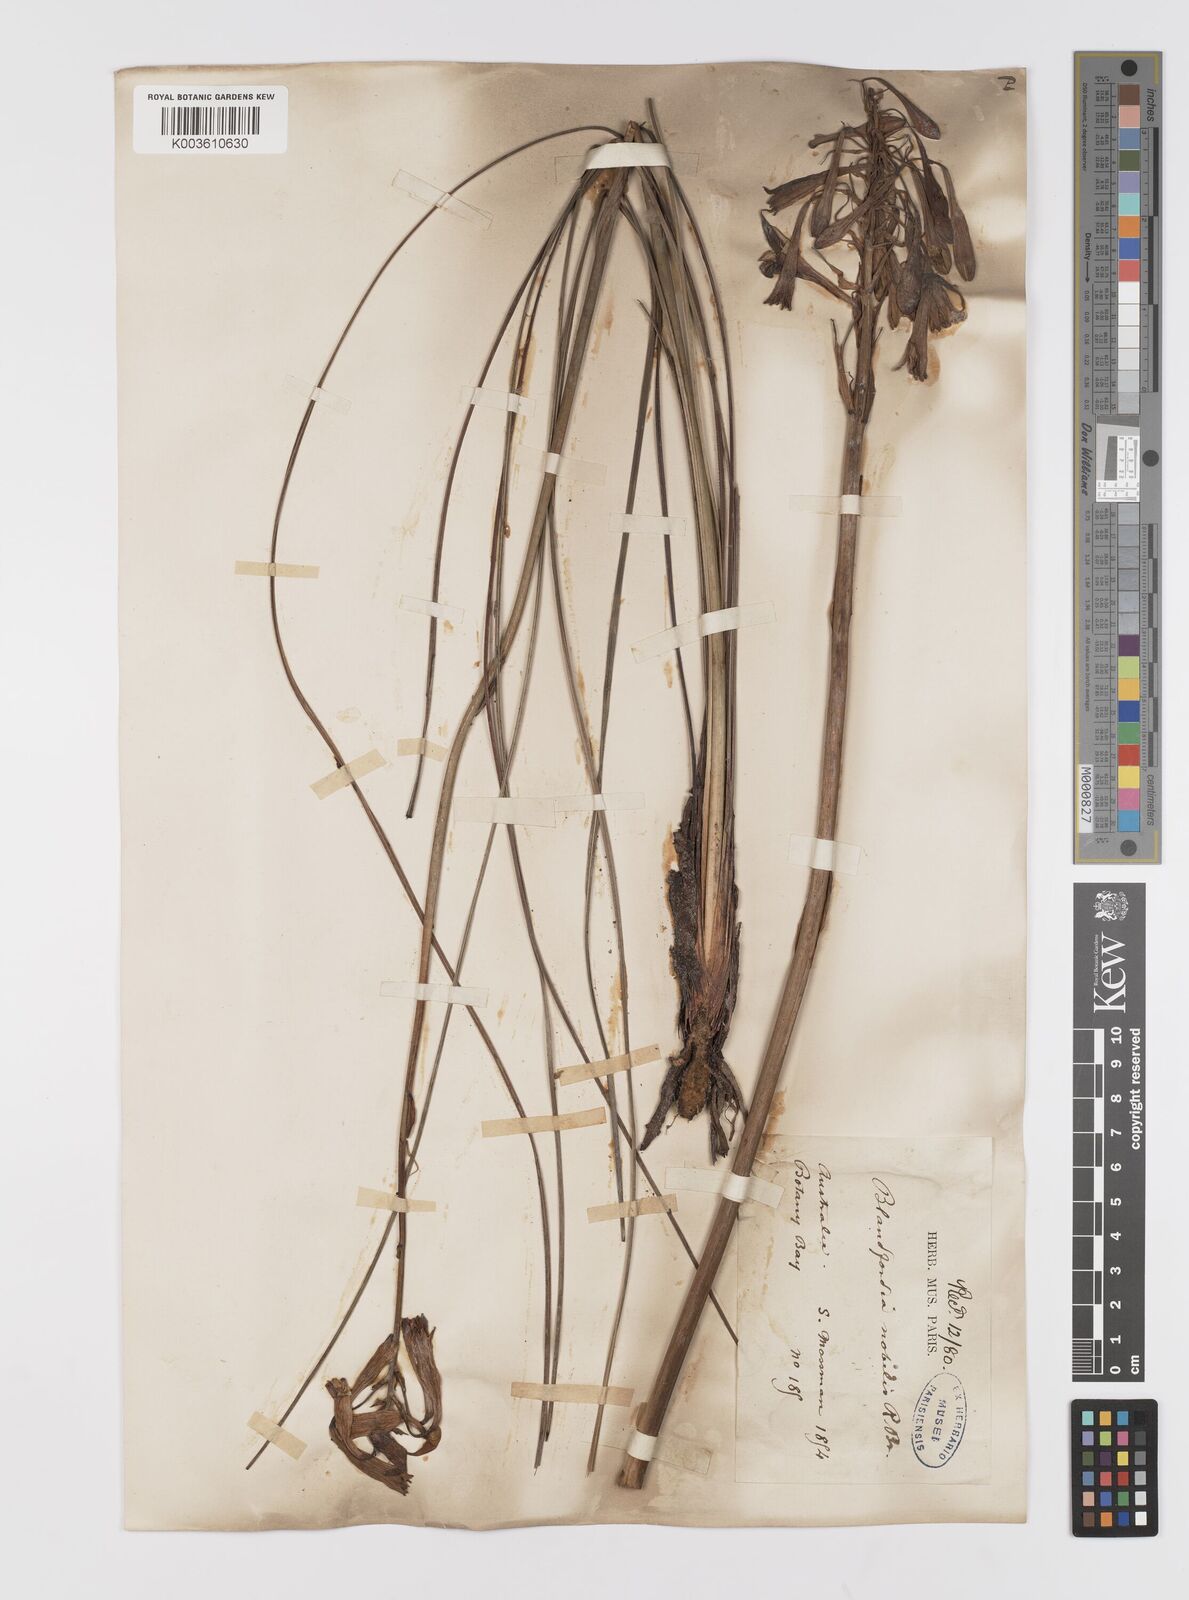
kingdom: Plantae
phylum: Tracheophyta
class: Liliopsida
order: Asparagales
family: Blandfordiaceae
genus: Blandfordia
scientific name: Blandfordia nobilis
